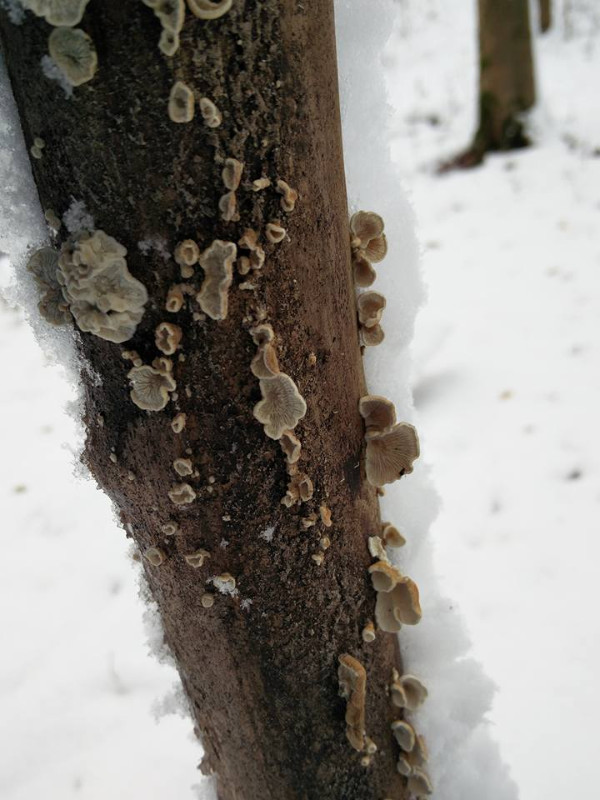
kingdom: Fungi
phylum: Basidiomycota
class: Agaricomycetes
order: Amylocorticiales
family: Amylocorticiaceae
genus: Plicaturopsis
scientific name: Plicaturopsis crispa
